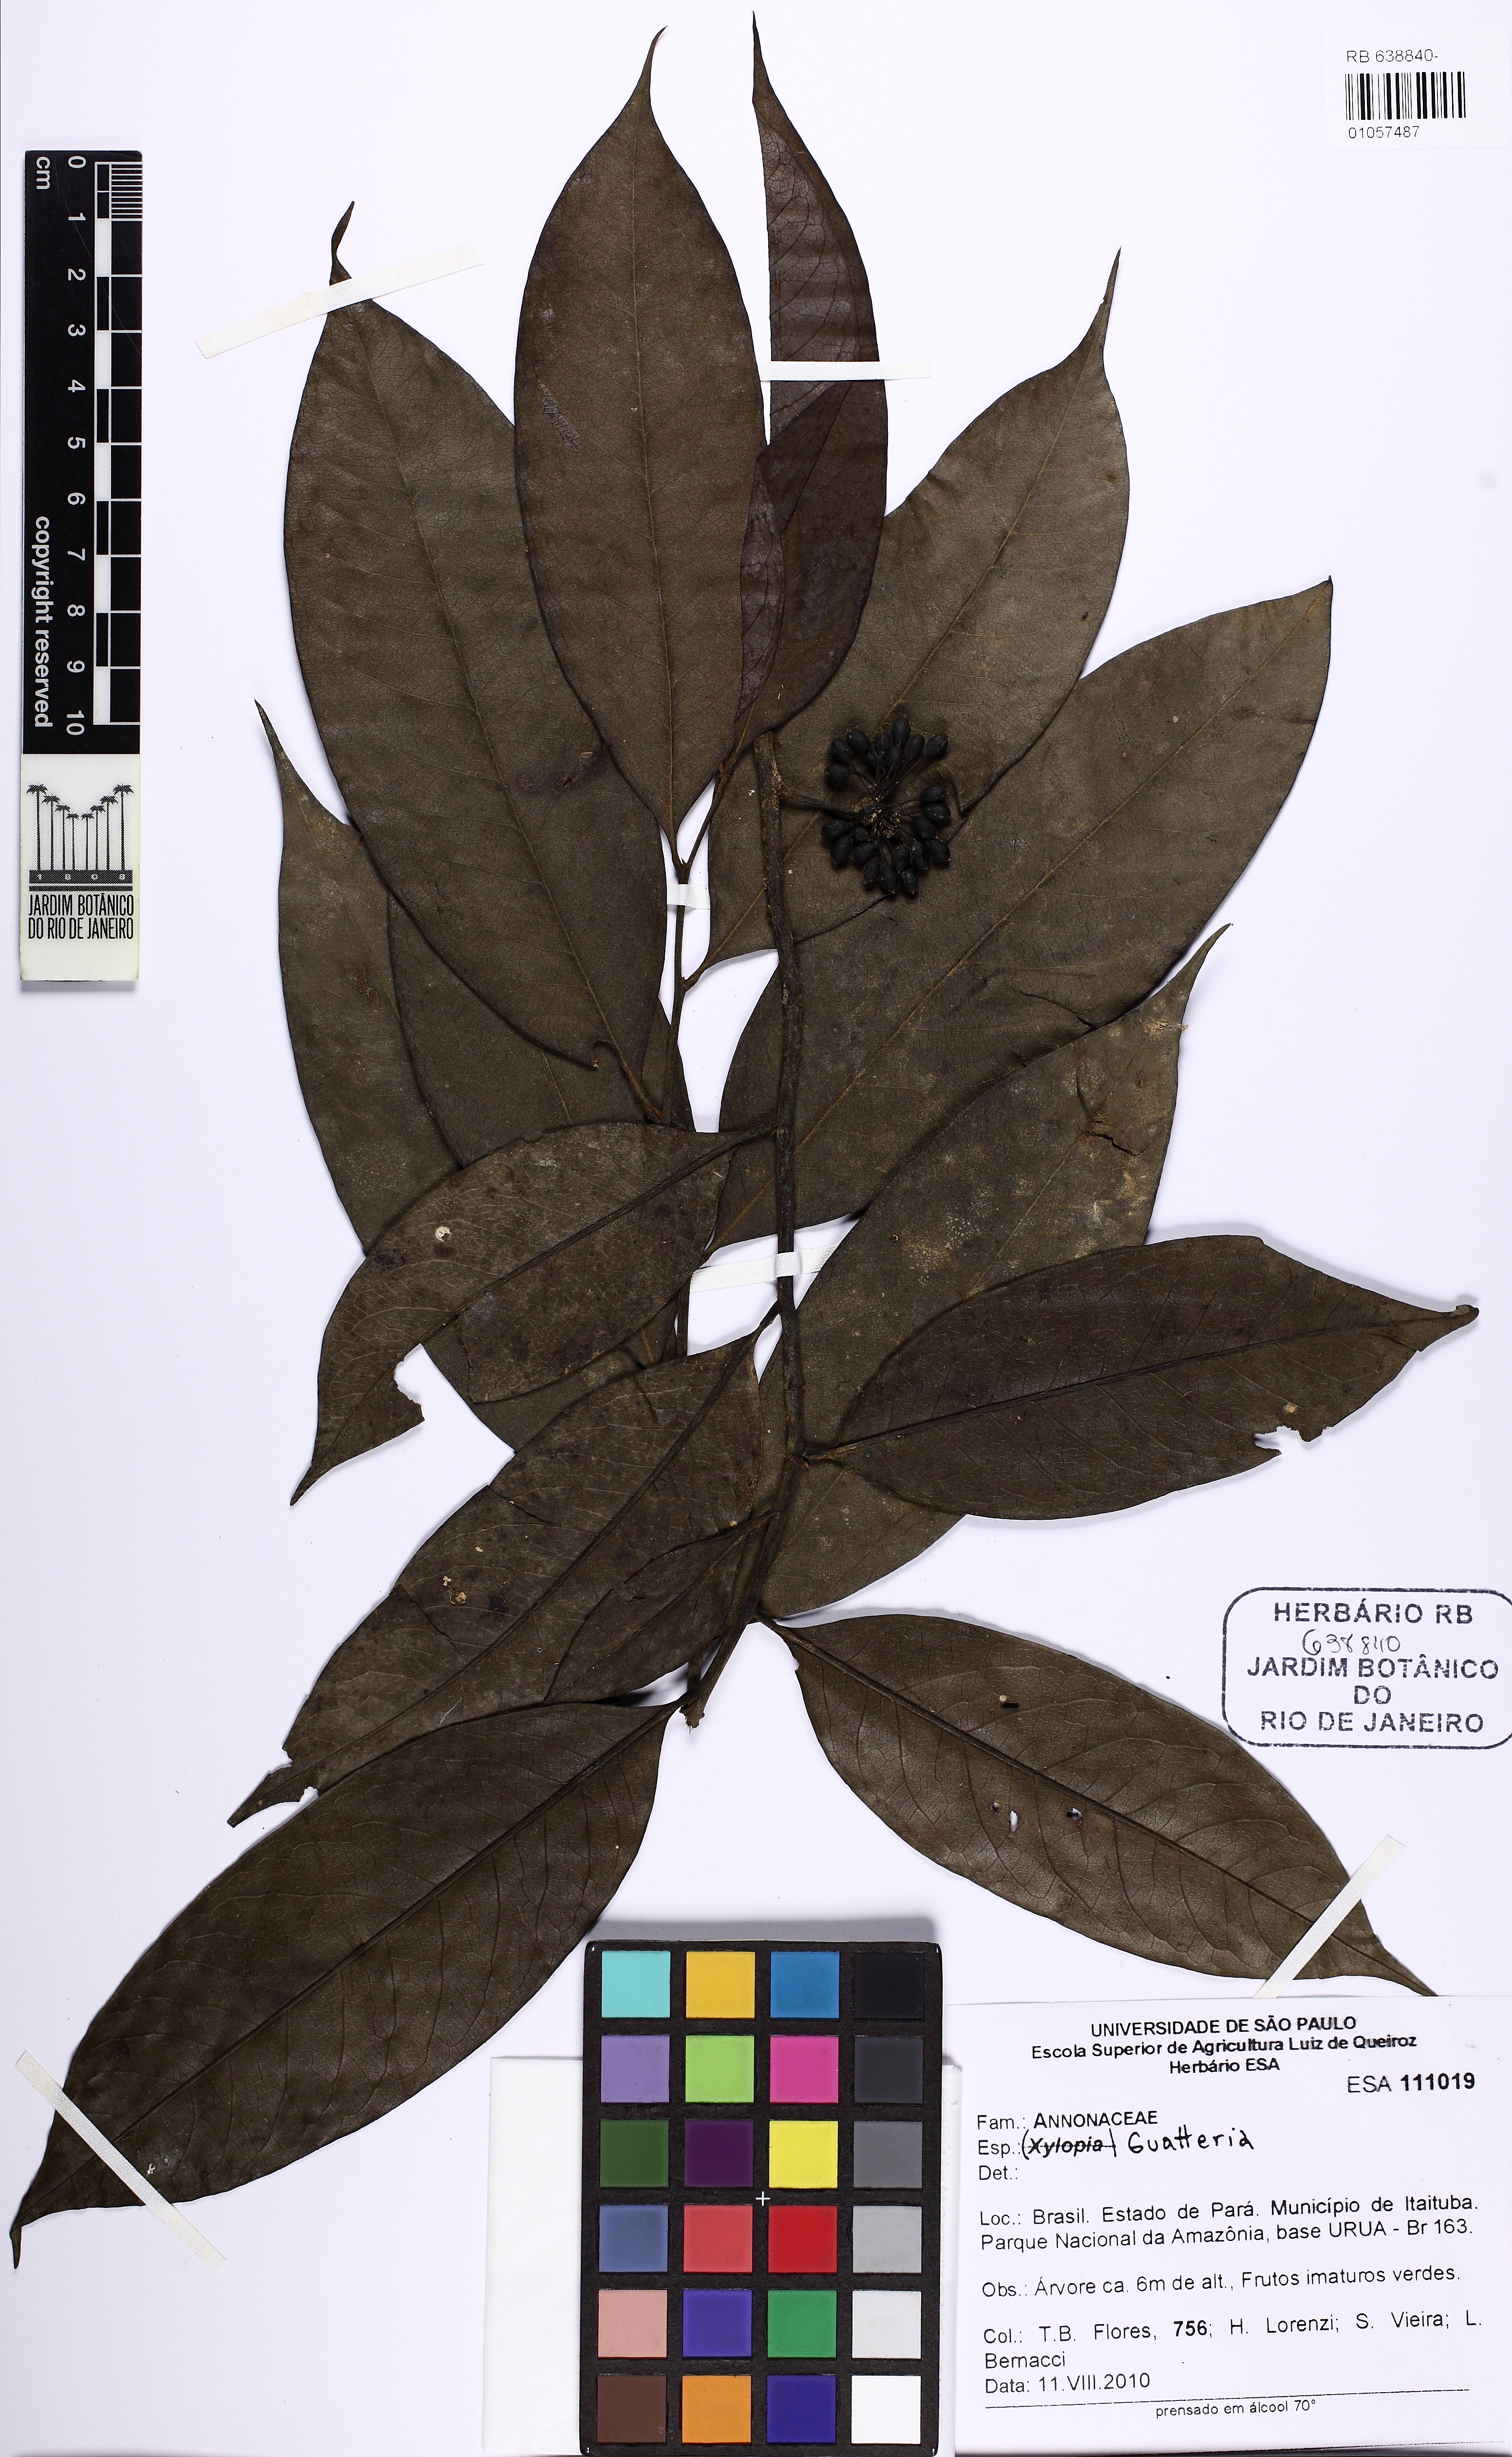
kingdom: Plantae
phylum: Tracheophyta
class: Magnoliopsida
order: Magnoliales
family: Annonaceae
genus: Guatteria
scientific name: Guatteria
